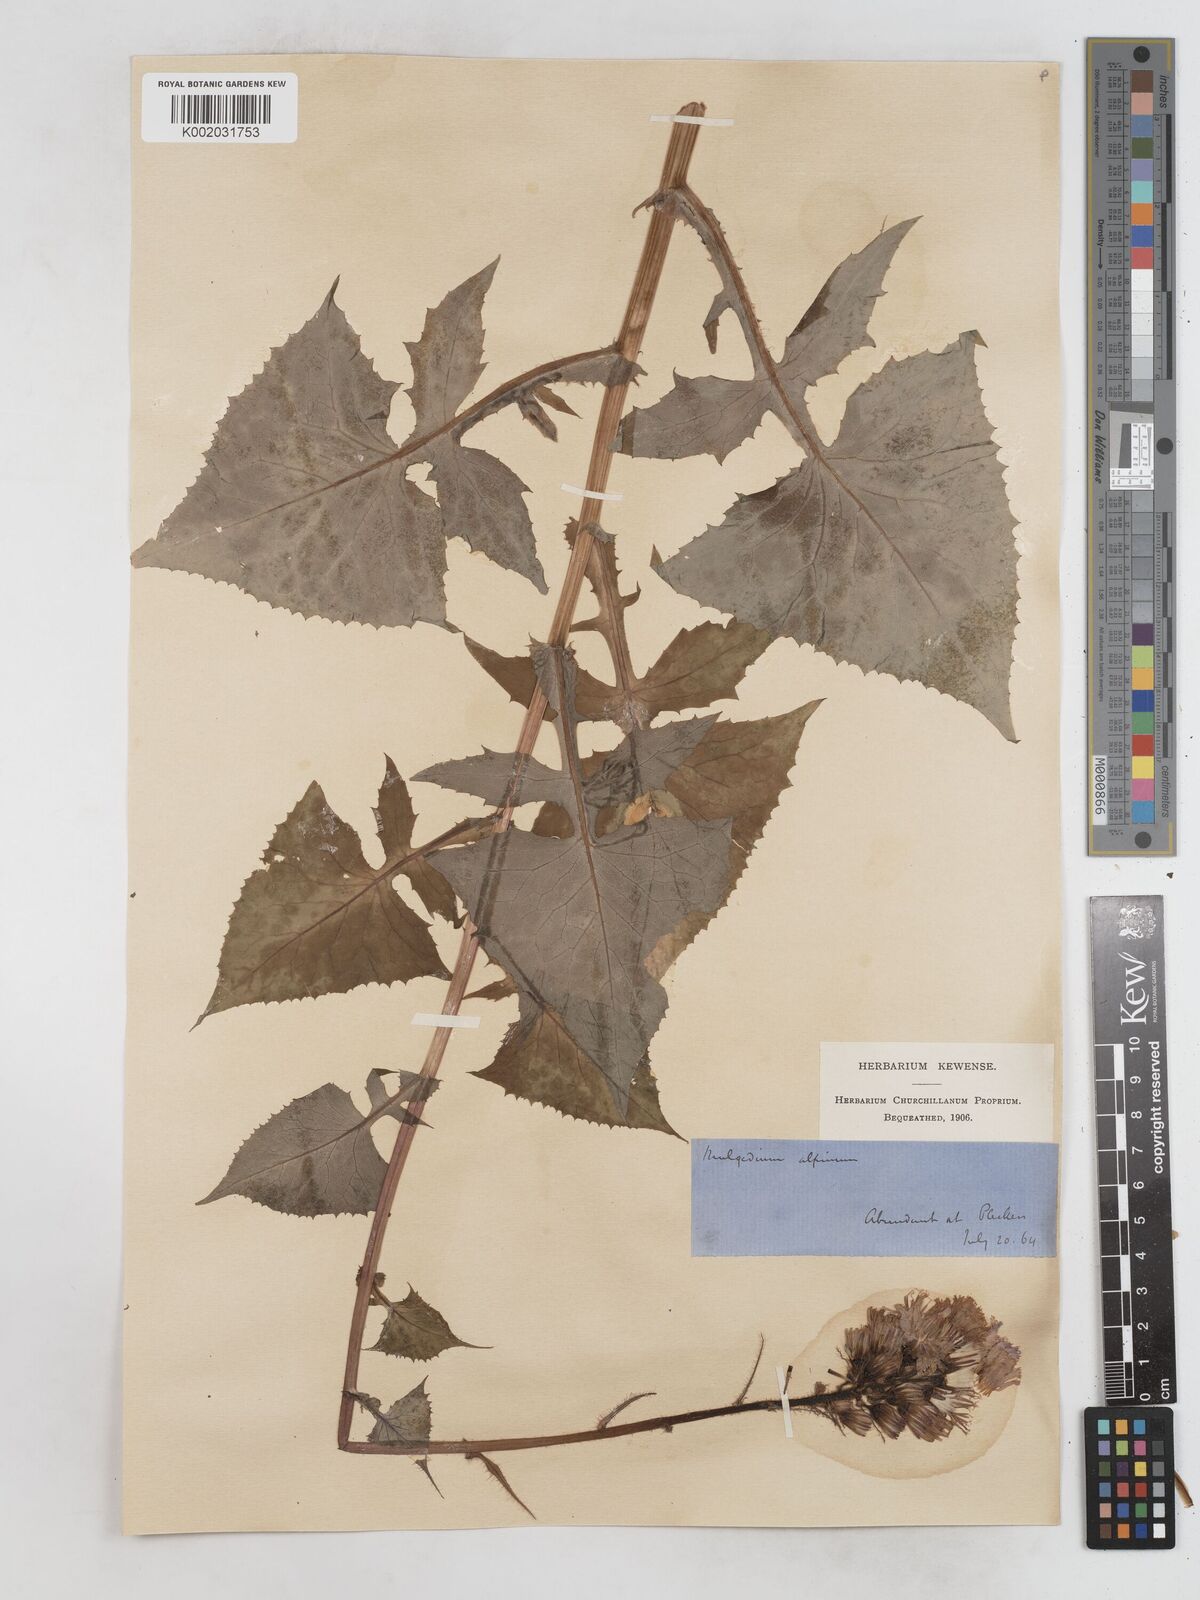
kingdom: Plantae
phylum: Tracheophyta
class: Magnoliopsida
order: Asterales
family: Asteraceae
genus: Cicerbita
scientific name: Cicerbita alpina
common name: Alpine blue-sow-thistle
